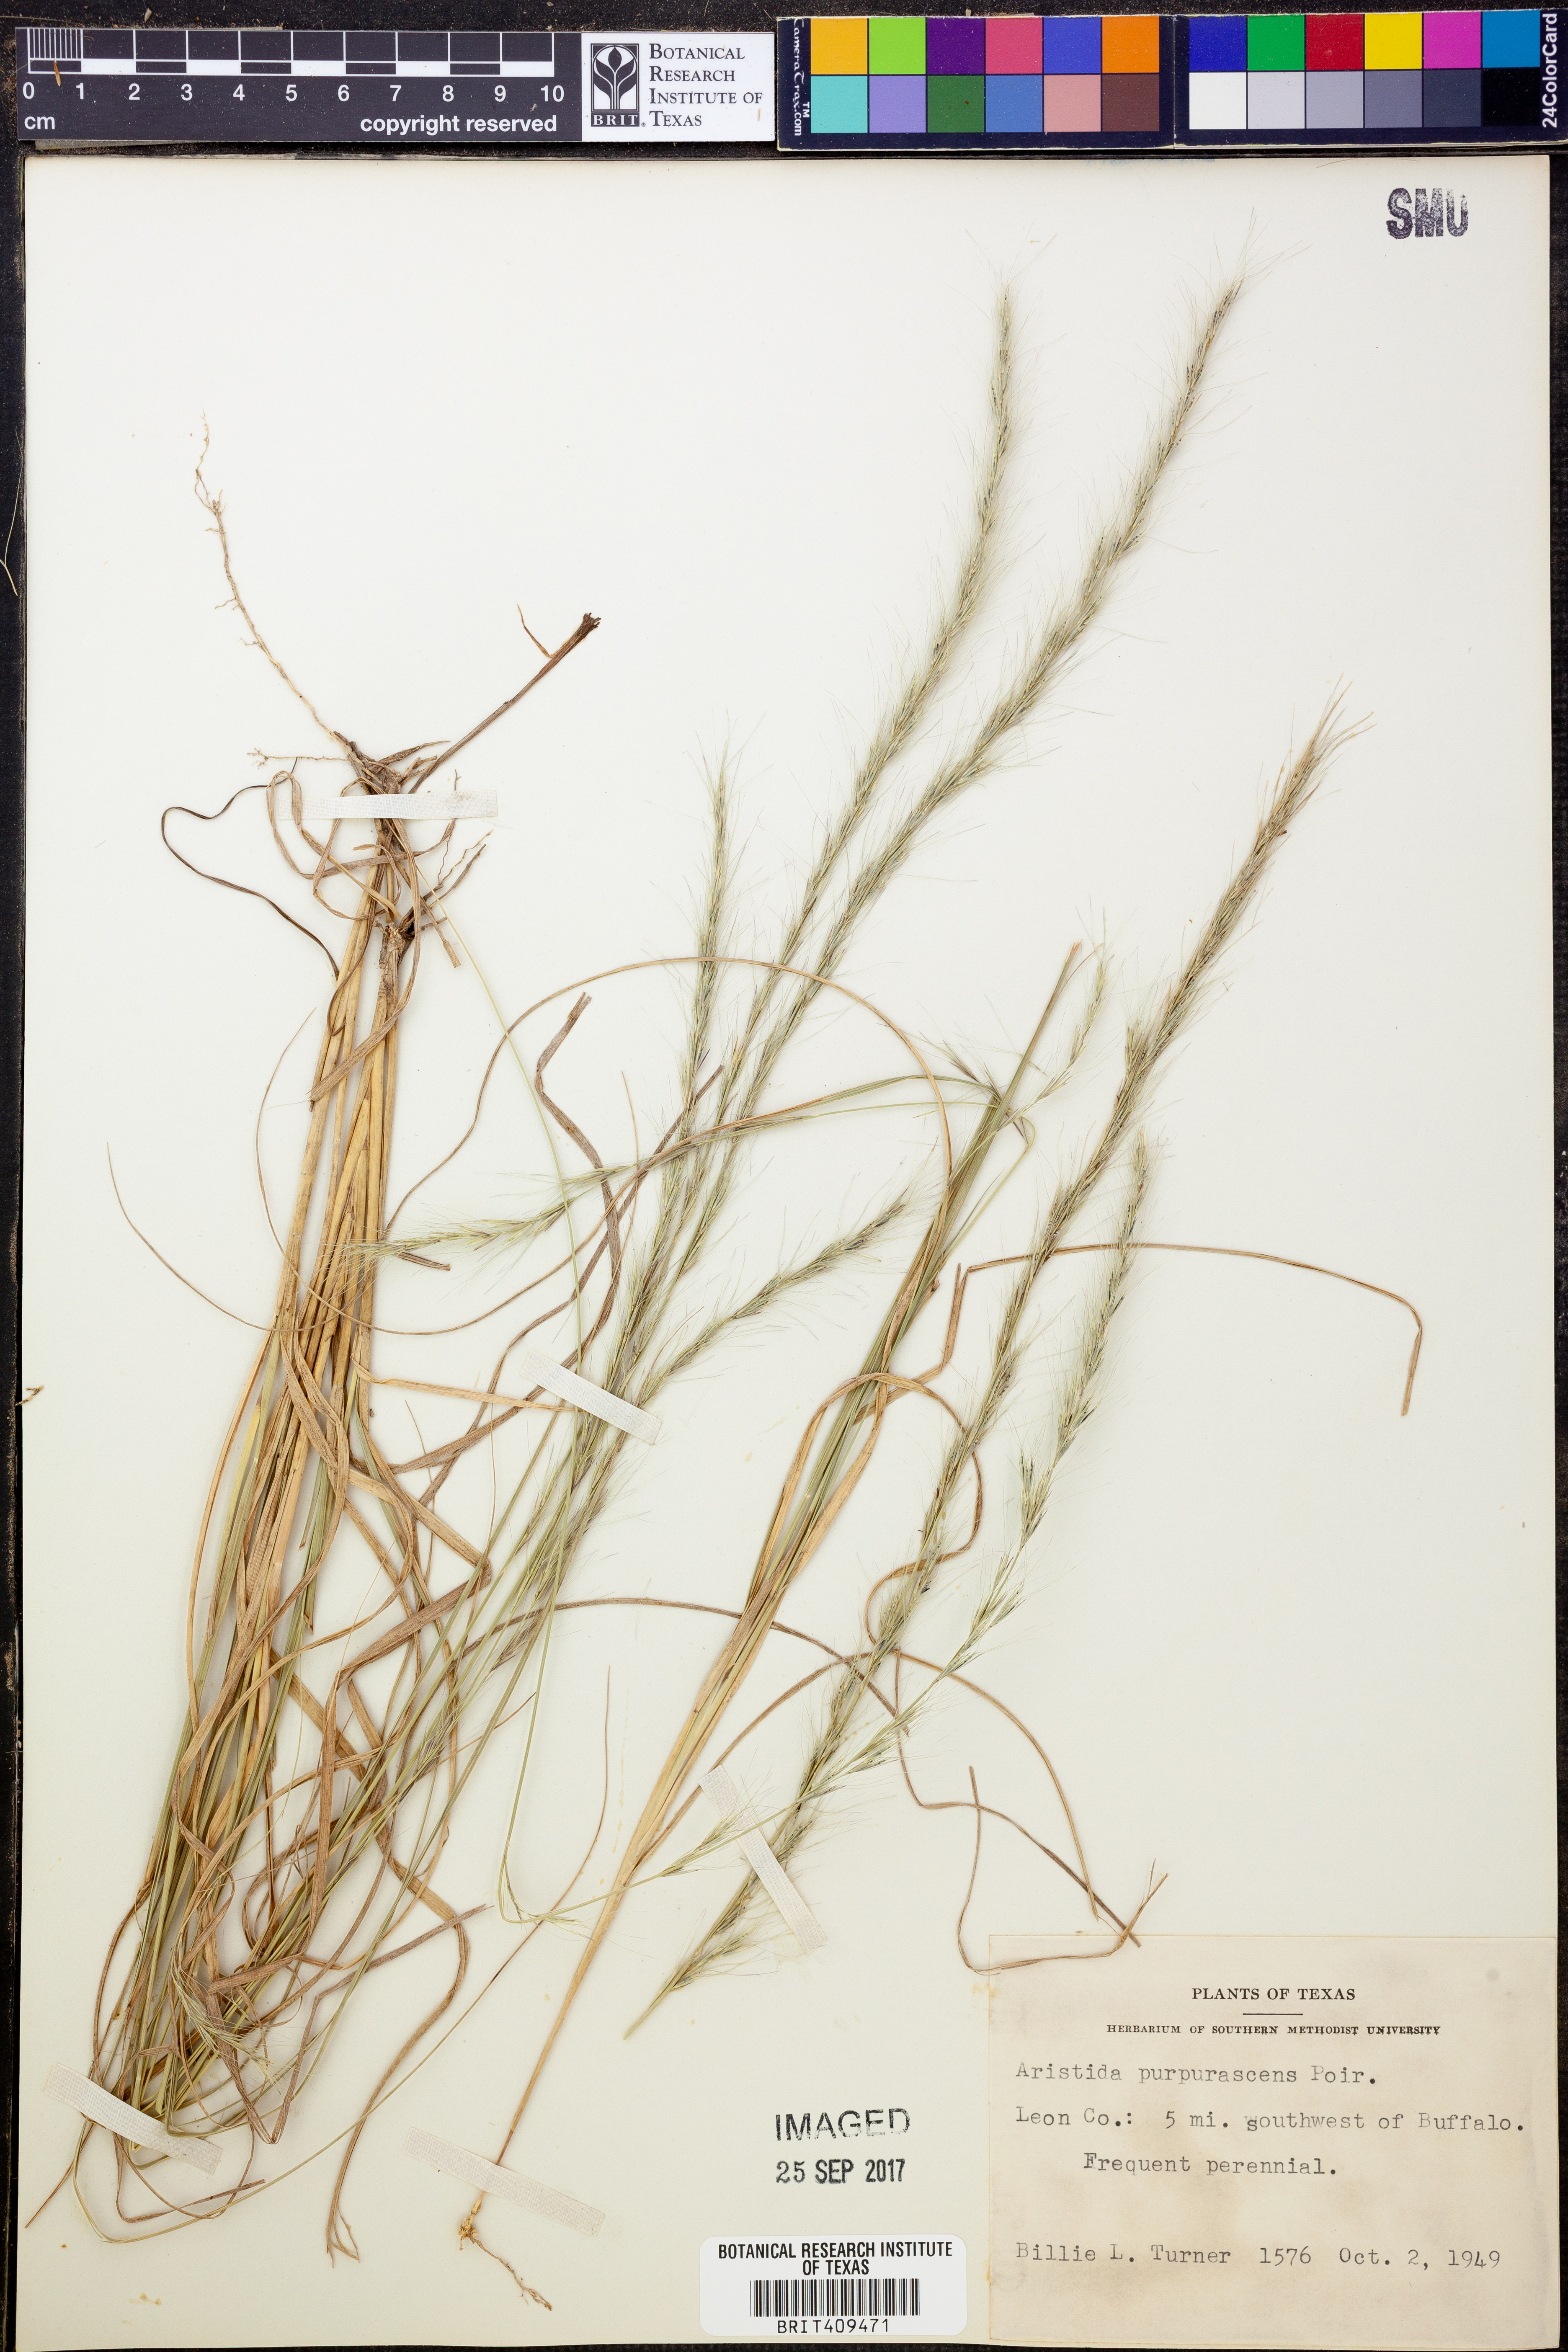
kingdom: Plantae
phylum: Tracheophyta
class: Liliopsida
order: Poales
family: Poaceae
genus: Aristida
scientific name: Aristida purpurascens
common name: Arrow-feather
